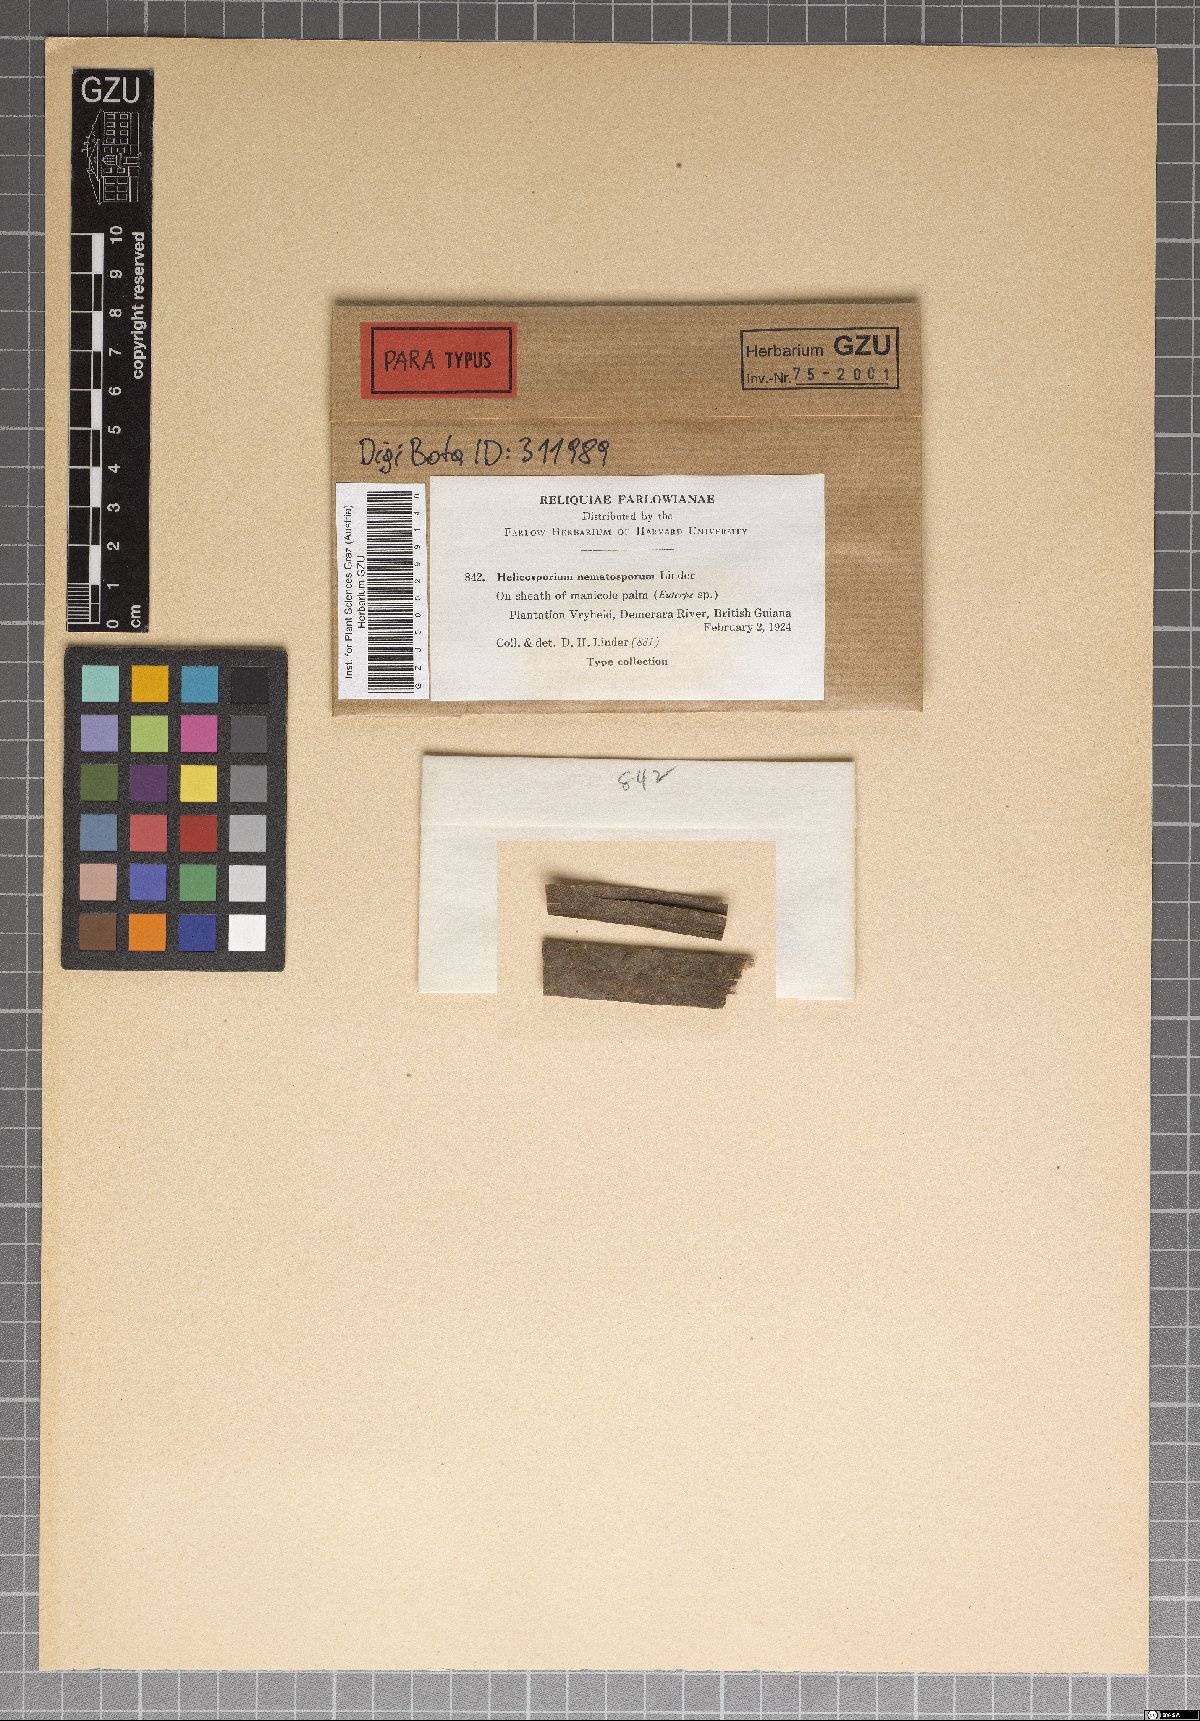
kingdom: Fungi
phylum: Ascomycota
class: Dothideomycetes
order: Tubeufiales
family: Tubeufiaceae
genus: Helicoma
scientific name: Helicoma nematosporum
